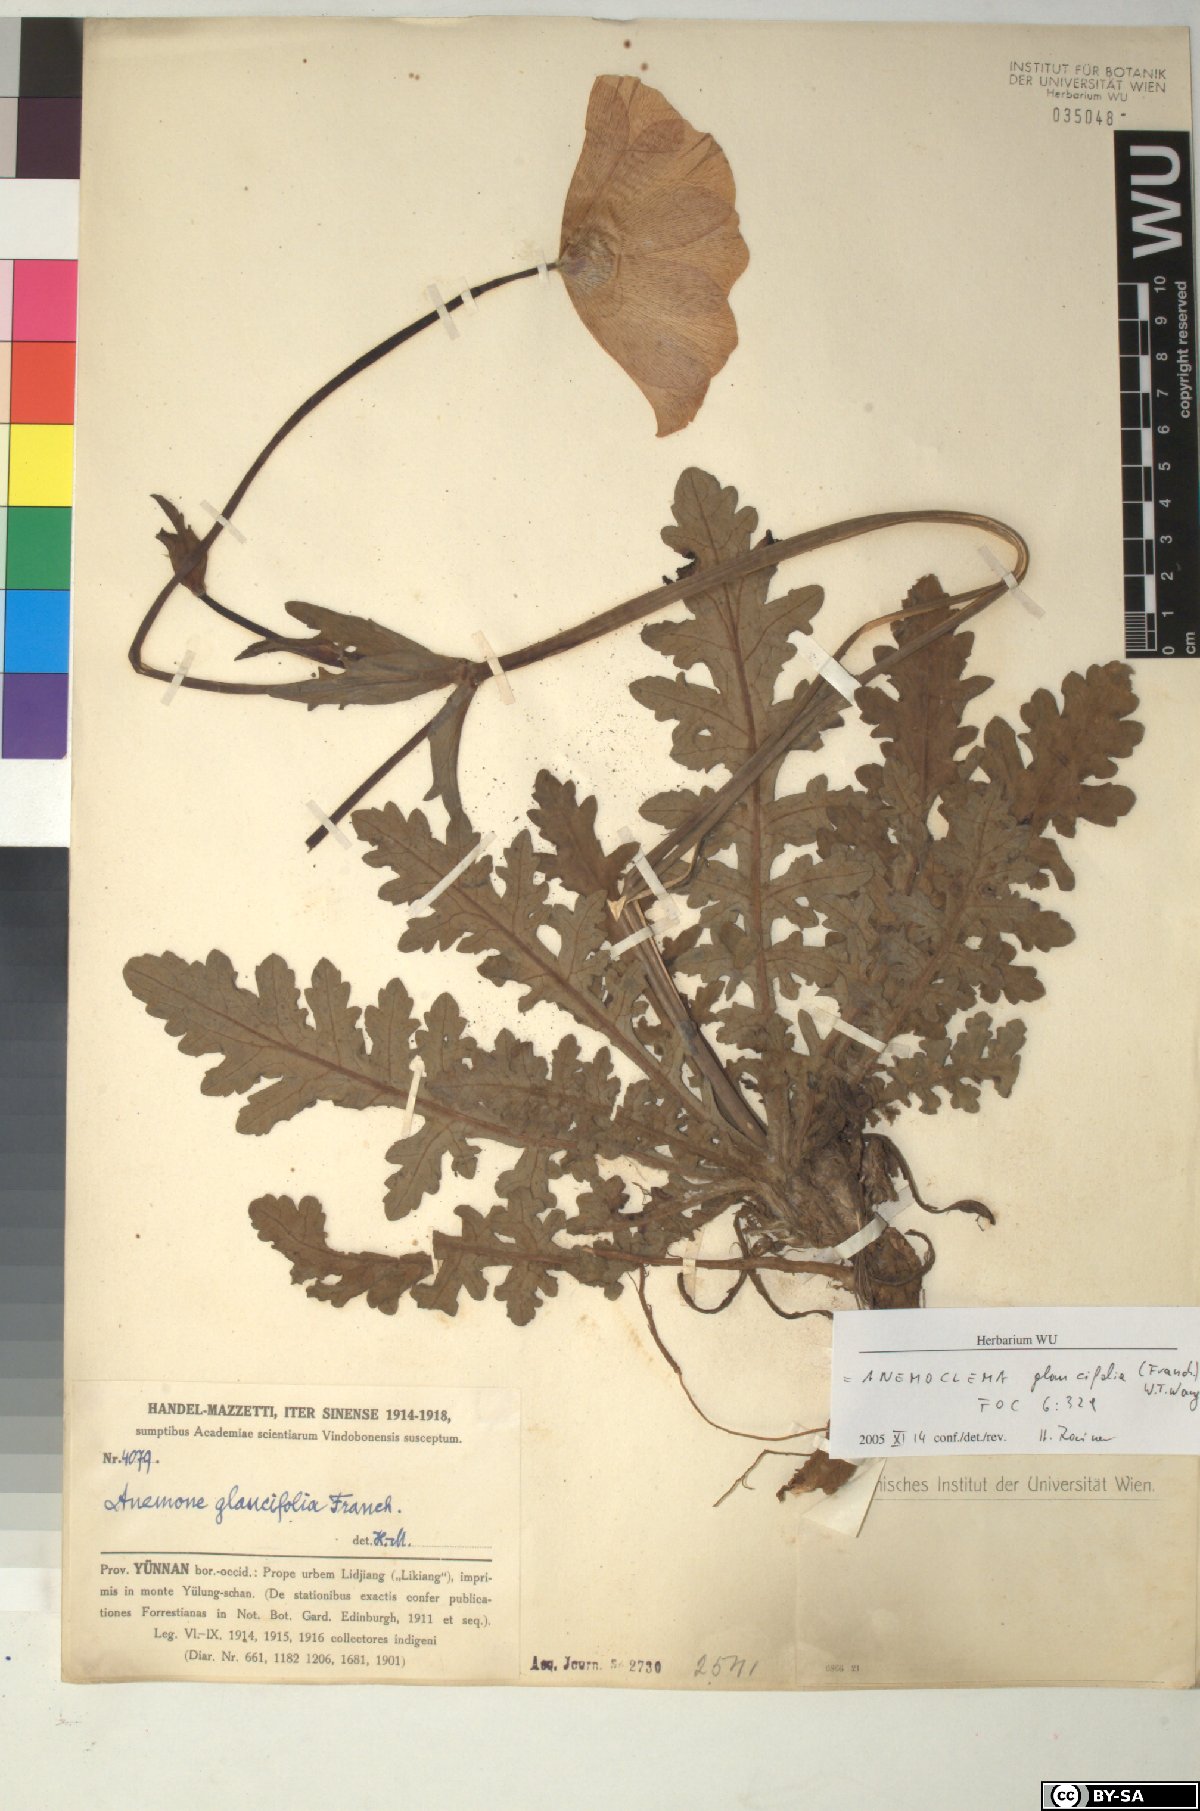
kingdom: Plantae
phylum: Tracheophyta
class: Magnoliopsida
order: Ranunculales
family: Ranunculaceae
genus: Anemone
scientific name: Anemone glaucifolia
